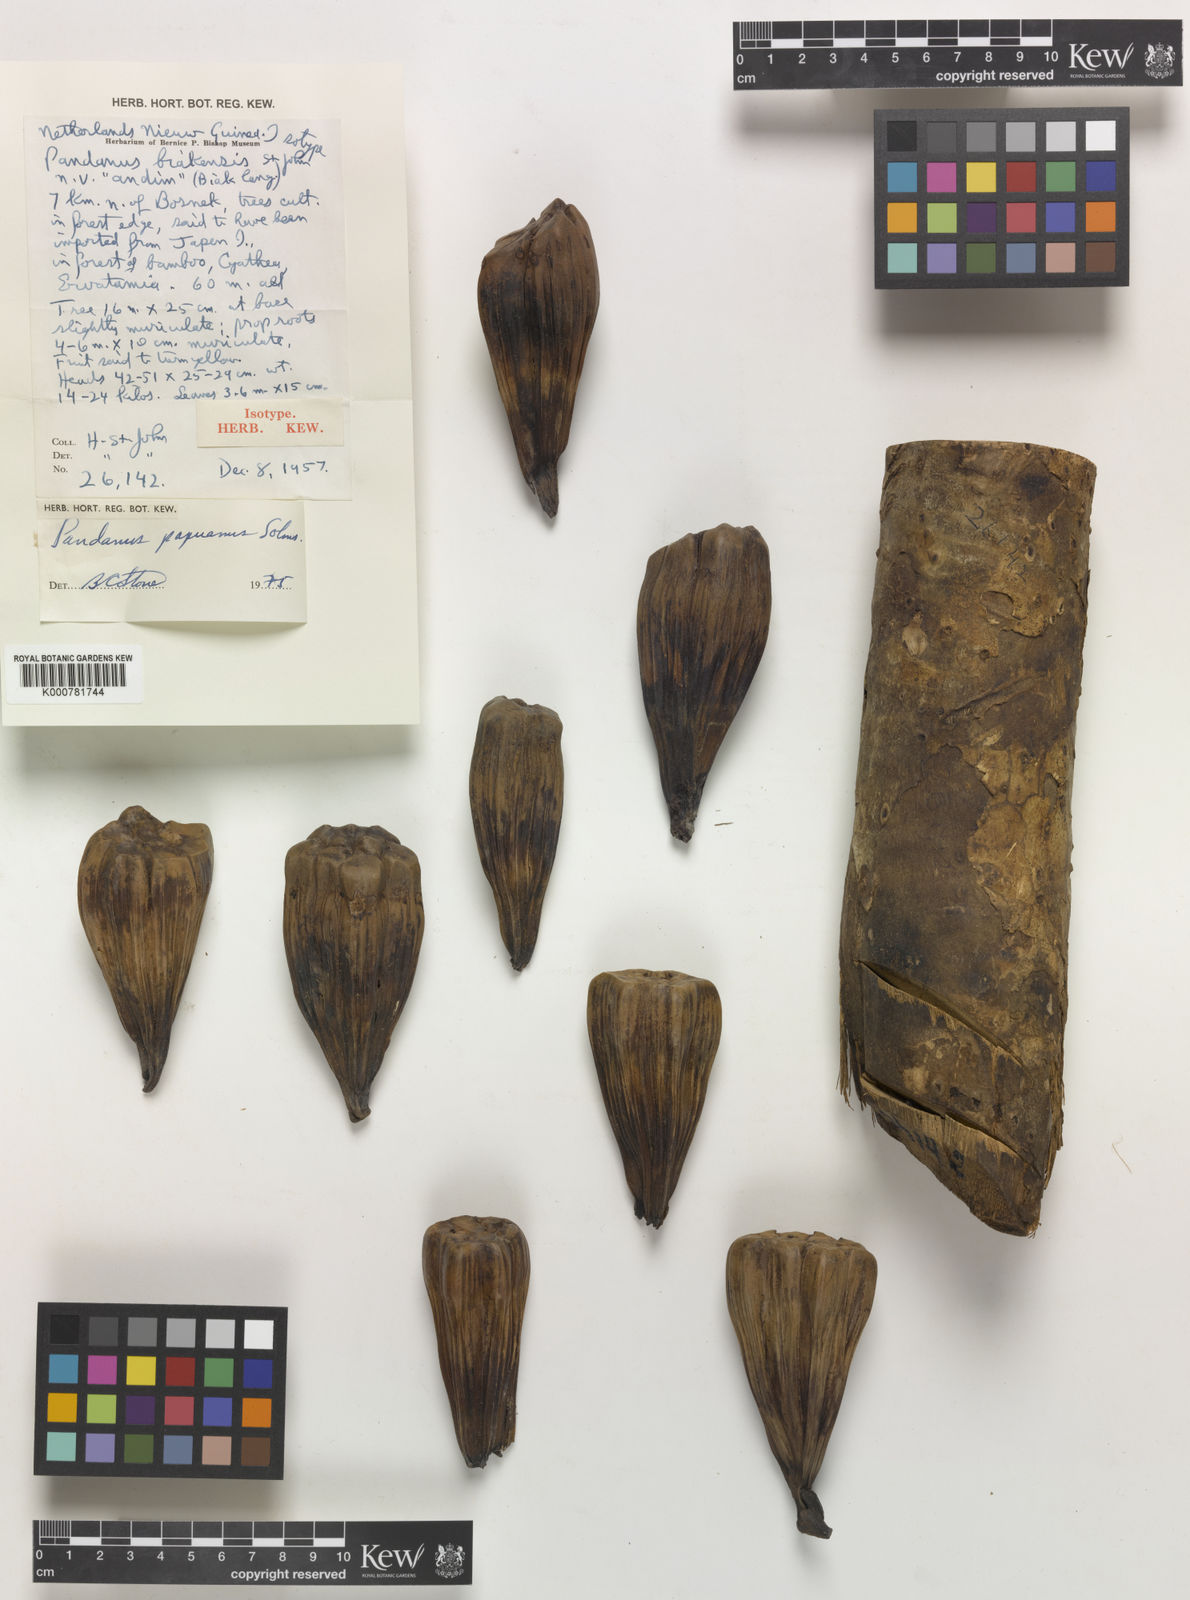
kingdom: Plantae
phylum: Tracheophyta
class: Liliopsida
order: Pandanales
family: Pandanaceae
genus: Pandanus
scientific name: Pandanus papuanus
